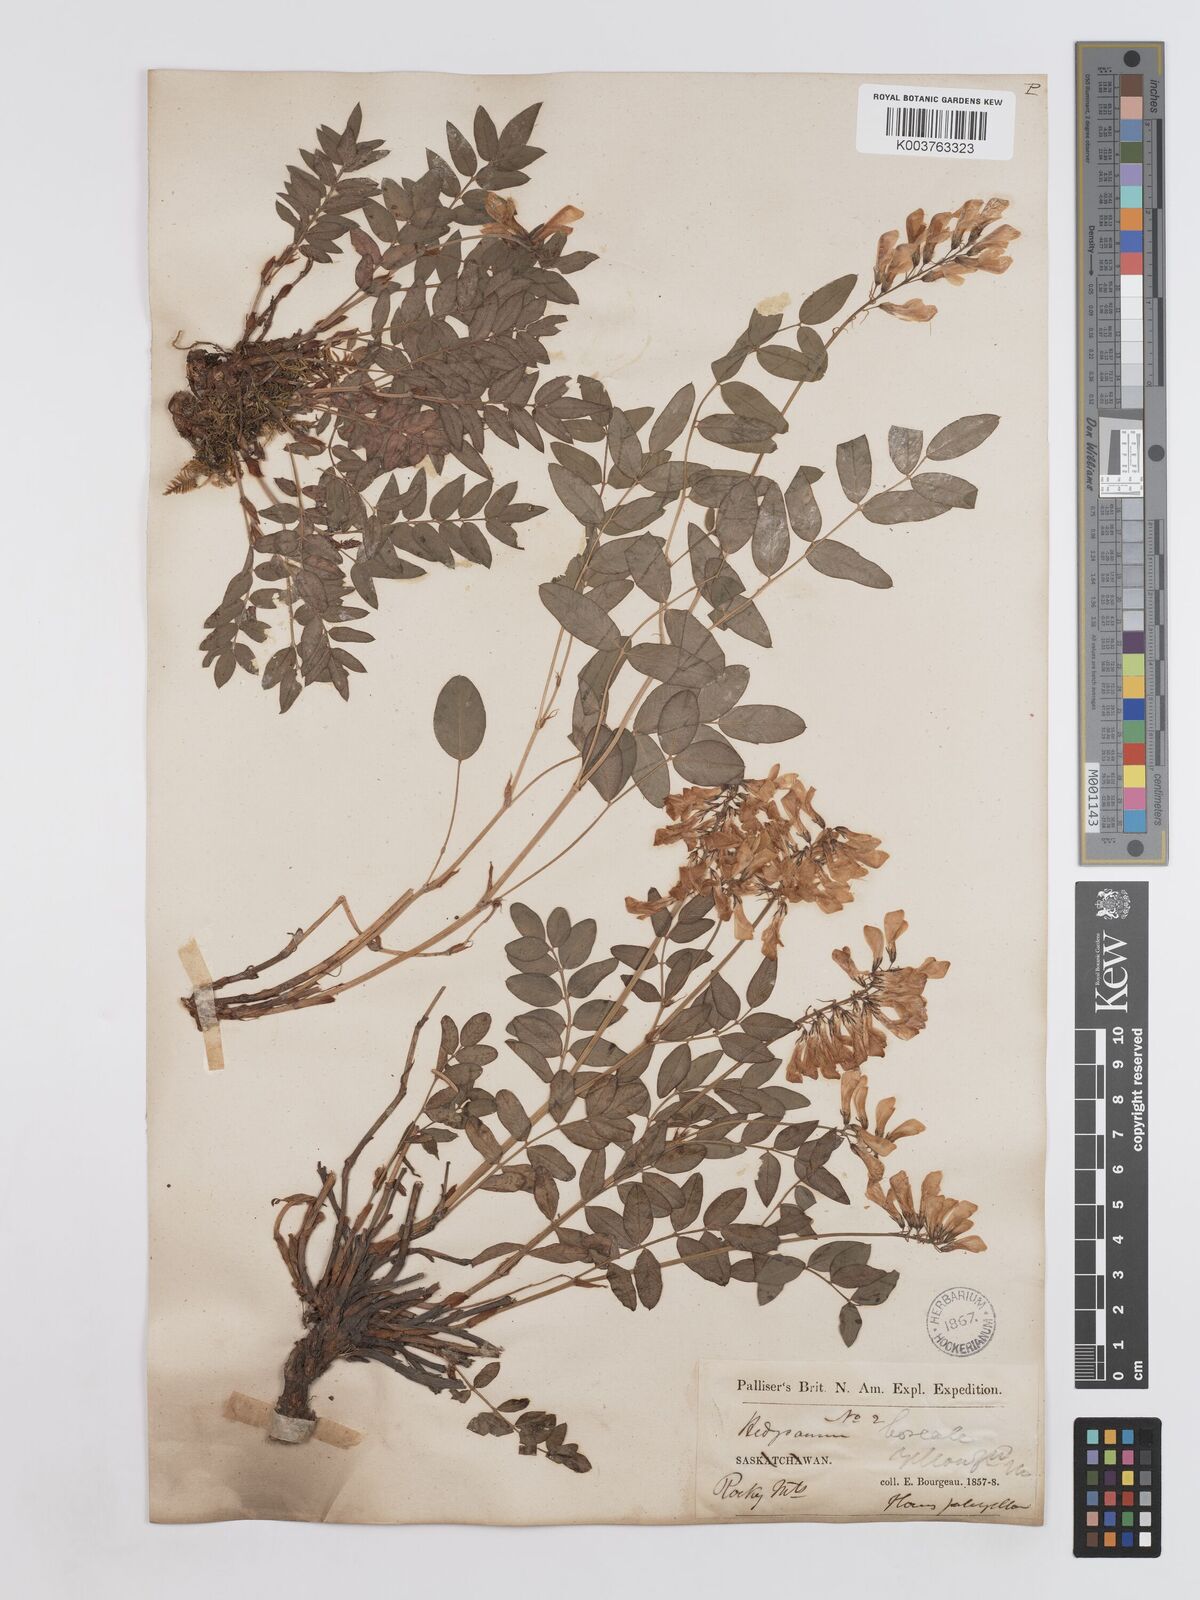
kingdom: Plantae
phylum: Tracheophyta
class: Magnoliopsida
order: Fabales
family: Fabaceae
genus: Hedysarum
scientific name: Hedysarum sulphurescens
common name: Sulphur hedysarum
